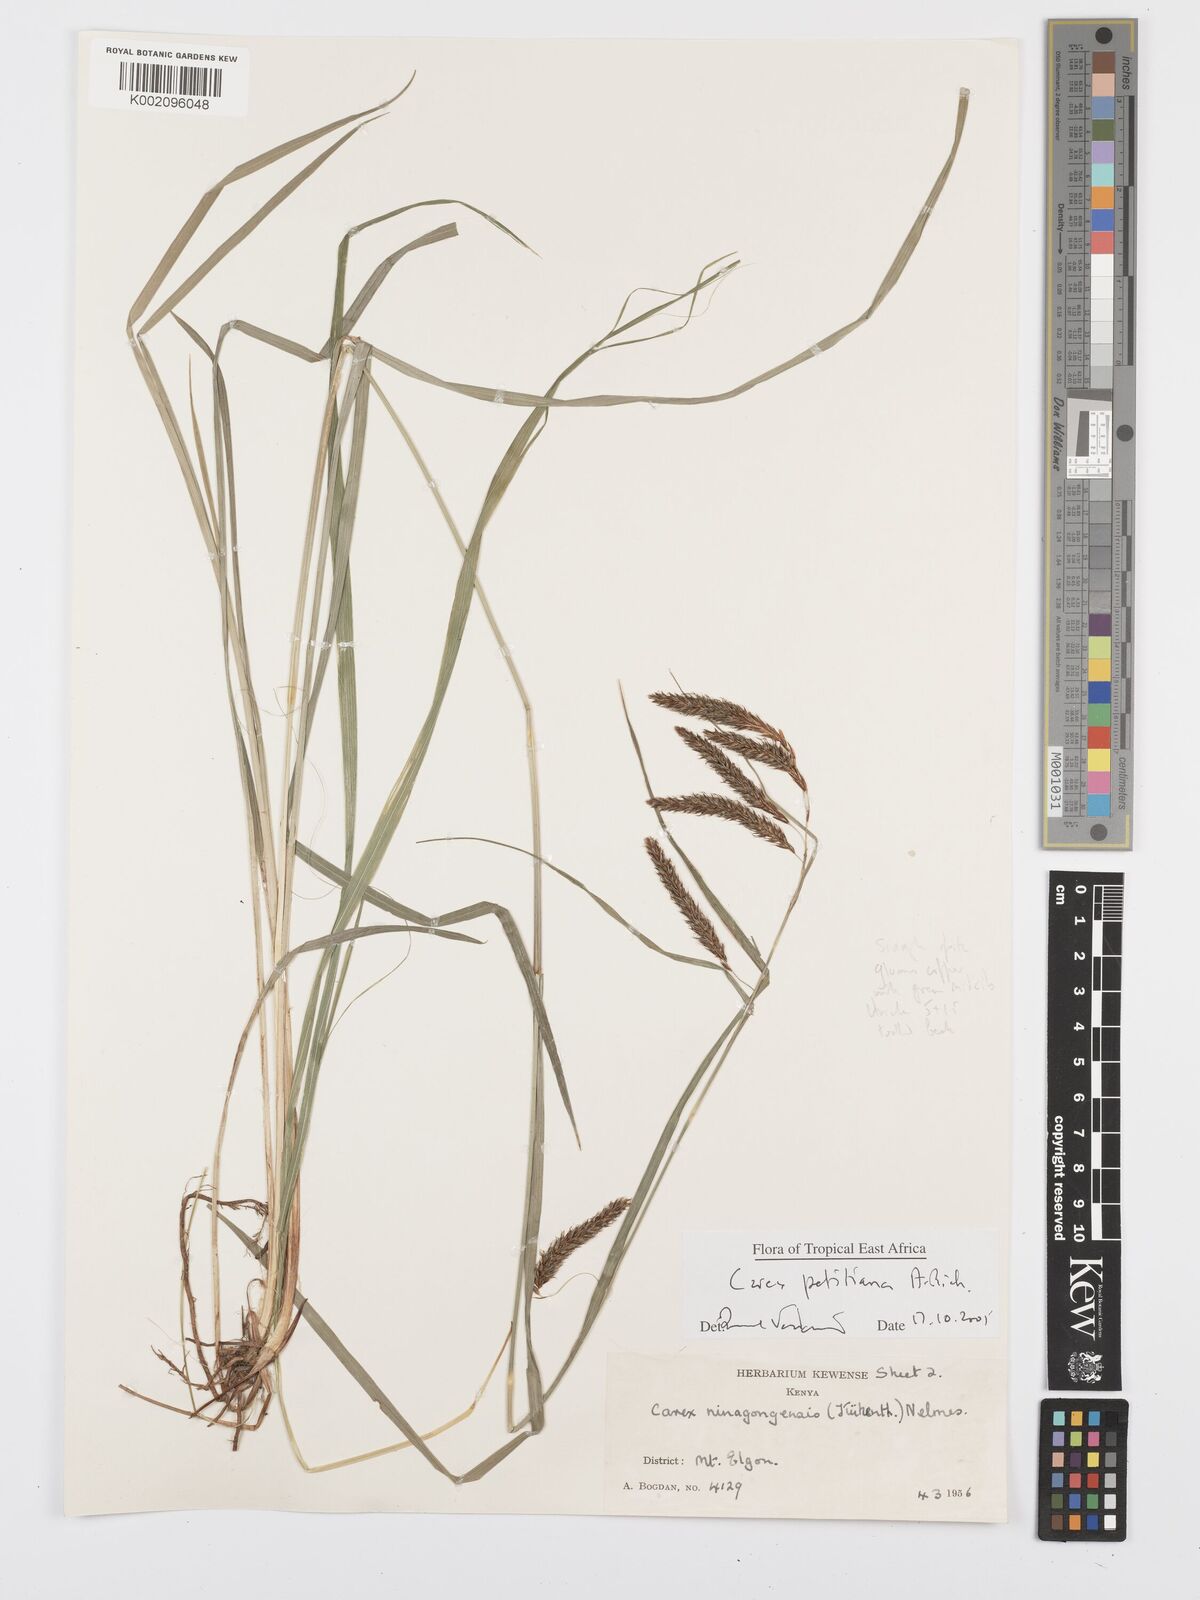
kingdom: Plantae
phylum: Tracheophyta
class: Liliopsida
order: Poales
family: Cyperaceae
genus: Carex
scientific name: Carex petitiana
